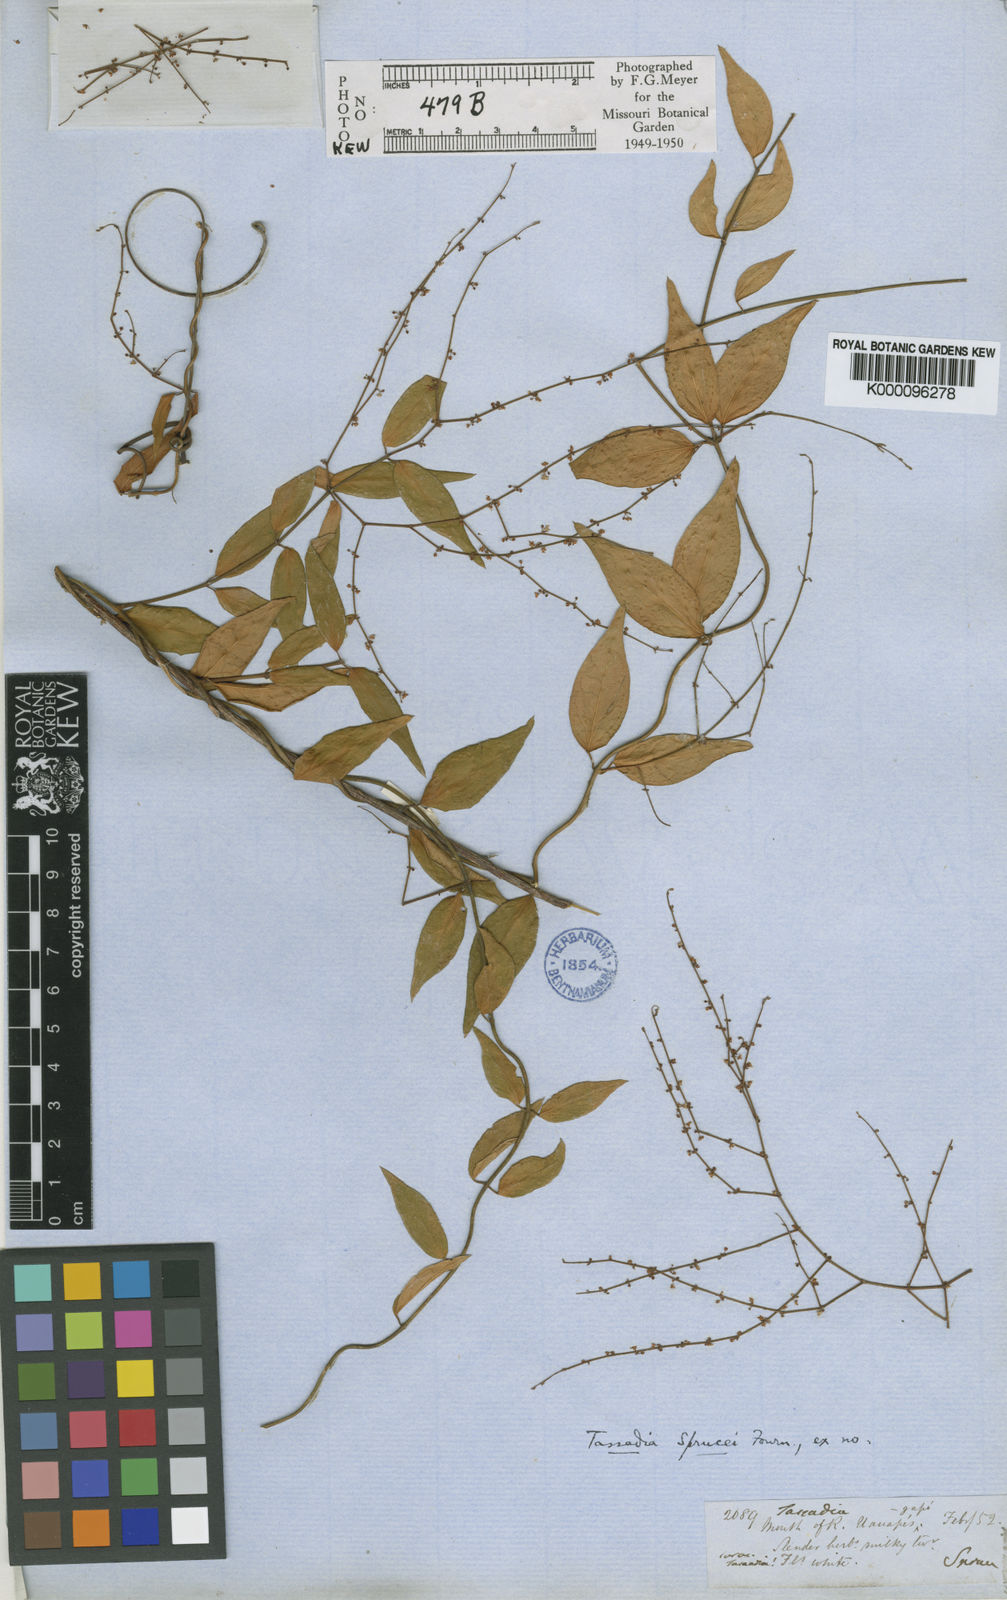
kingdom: Plantae
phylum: Tracheophyta
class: Magnoliopsida
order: Gentianales
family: Apocynaceae
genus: Tassadia
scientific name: Tassadia propinqua
